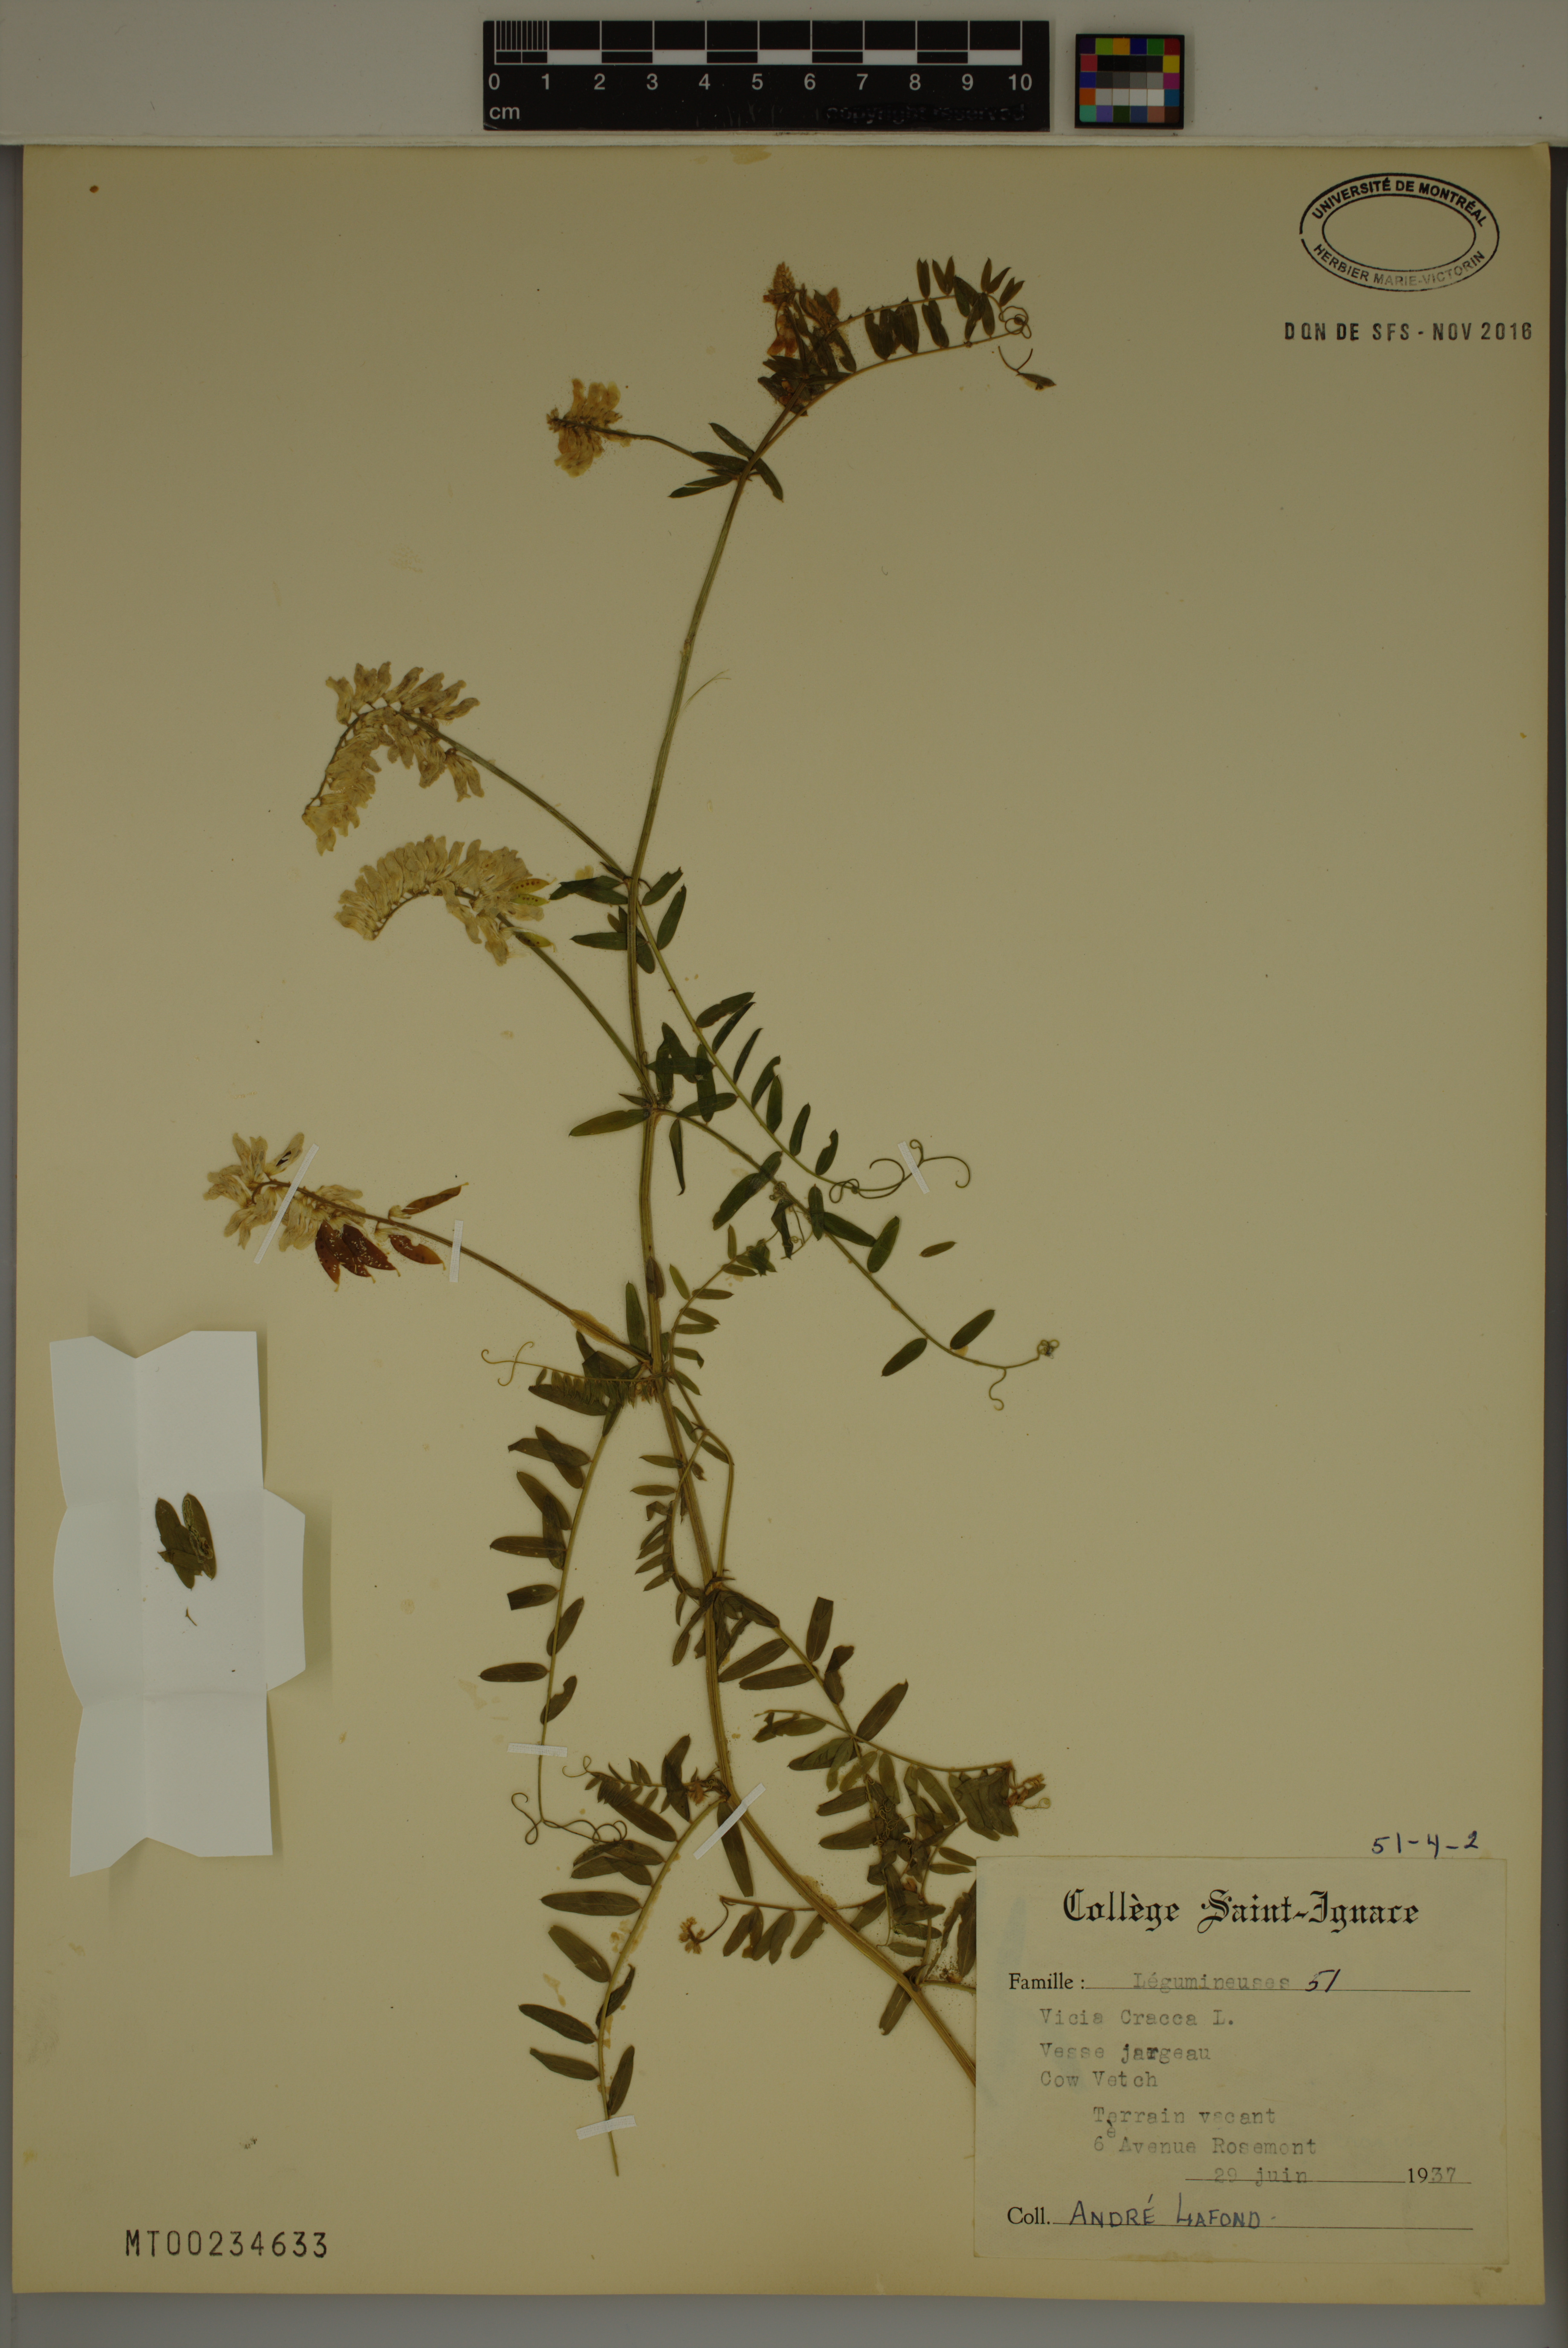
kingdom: Plantae
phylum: Tracheophyta
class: Magnoliopsida
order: Fabales
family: Fabaceae
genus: Vicia
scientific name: Vicia cracca
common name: Bird vetch
